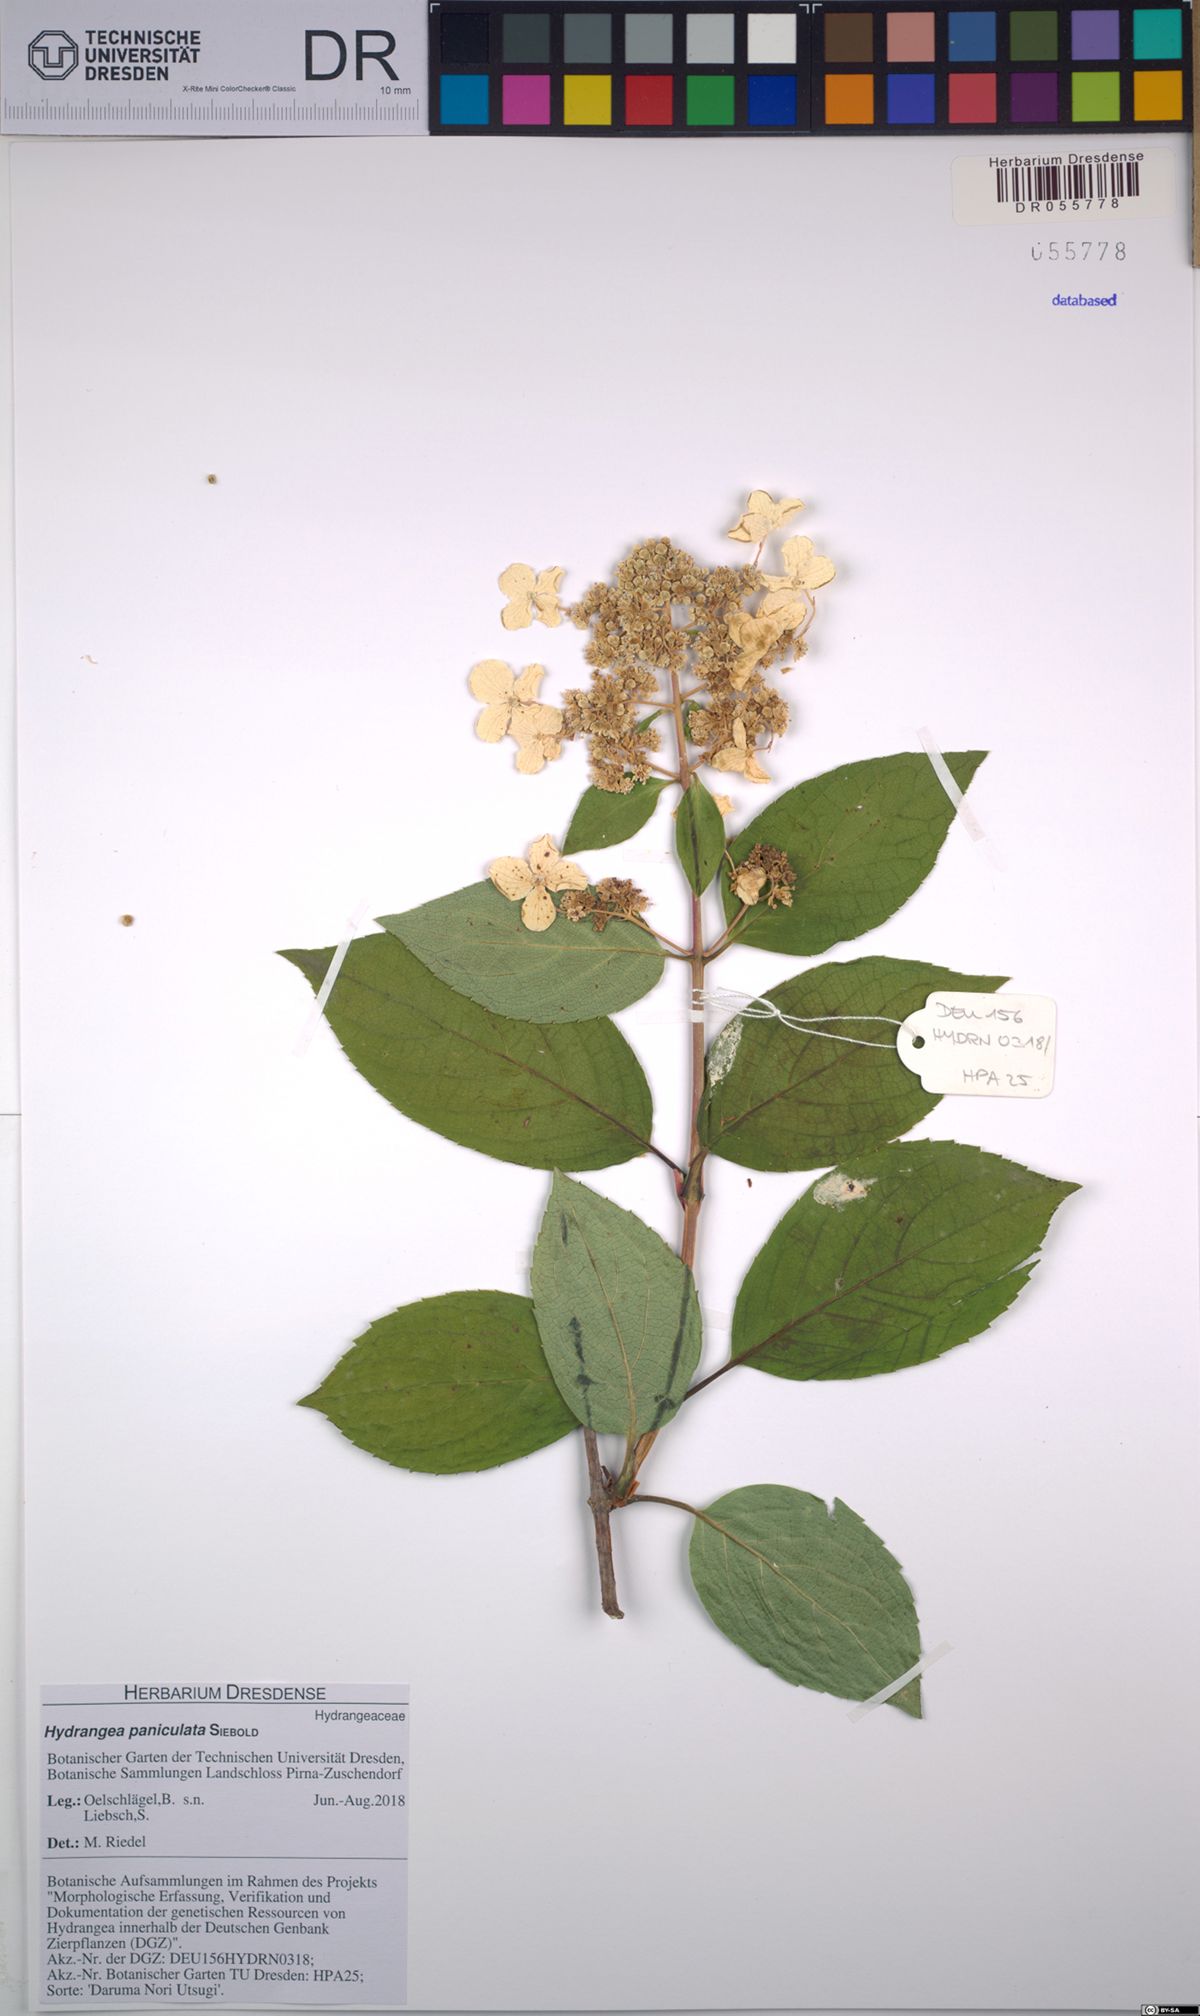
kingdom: Plantae
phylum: Tracheophyta
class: Magnoliopsida
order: Cornales
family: Hydrangeaceae
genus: Hydrangea
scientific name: Hydrangea paniculata
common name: Panicled hydrangea
